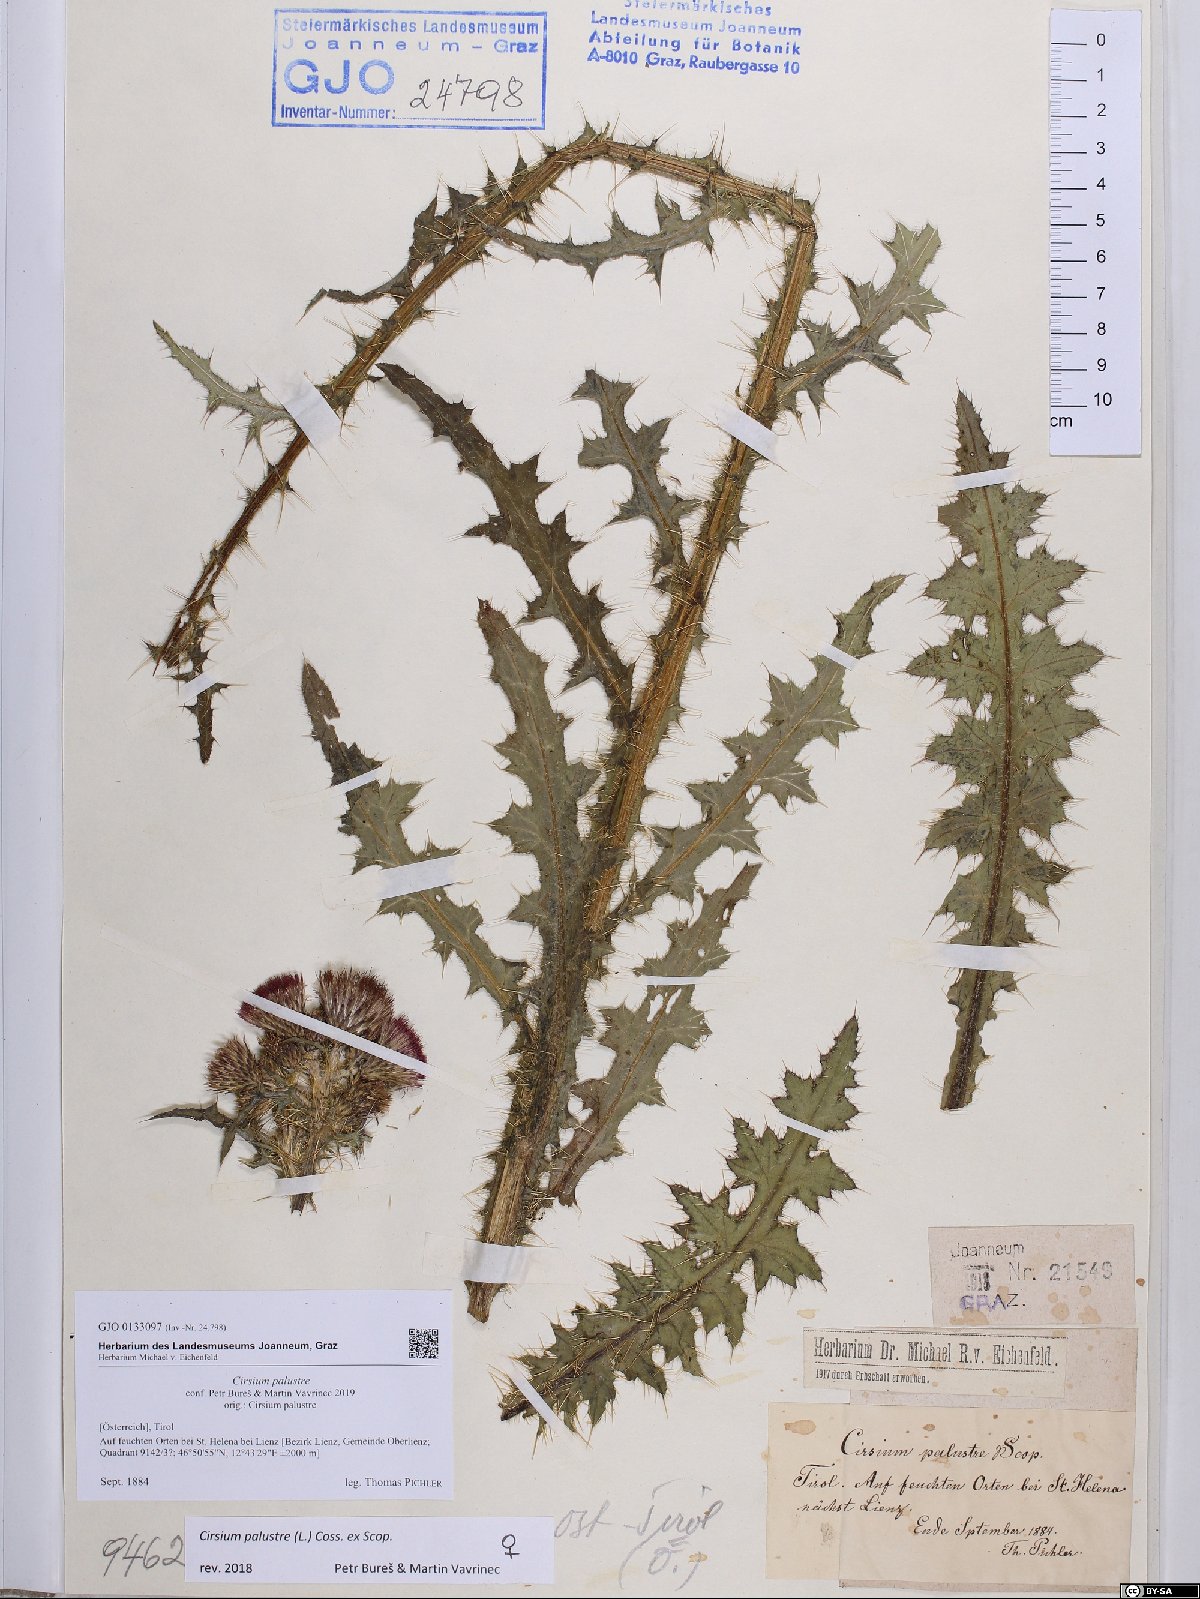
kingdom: Plantae
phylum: Tracheophyta
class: Magnoliopsida
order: Asterales
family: Asteraceae
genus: Cirsium
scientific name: Cirsium palustre
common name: Marsh thistle
